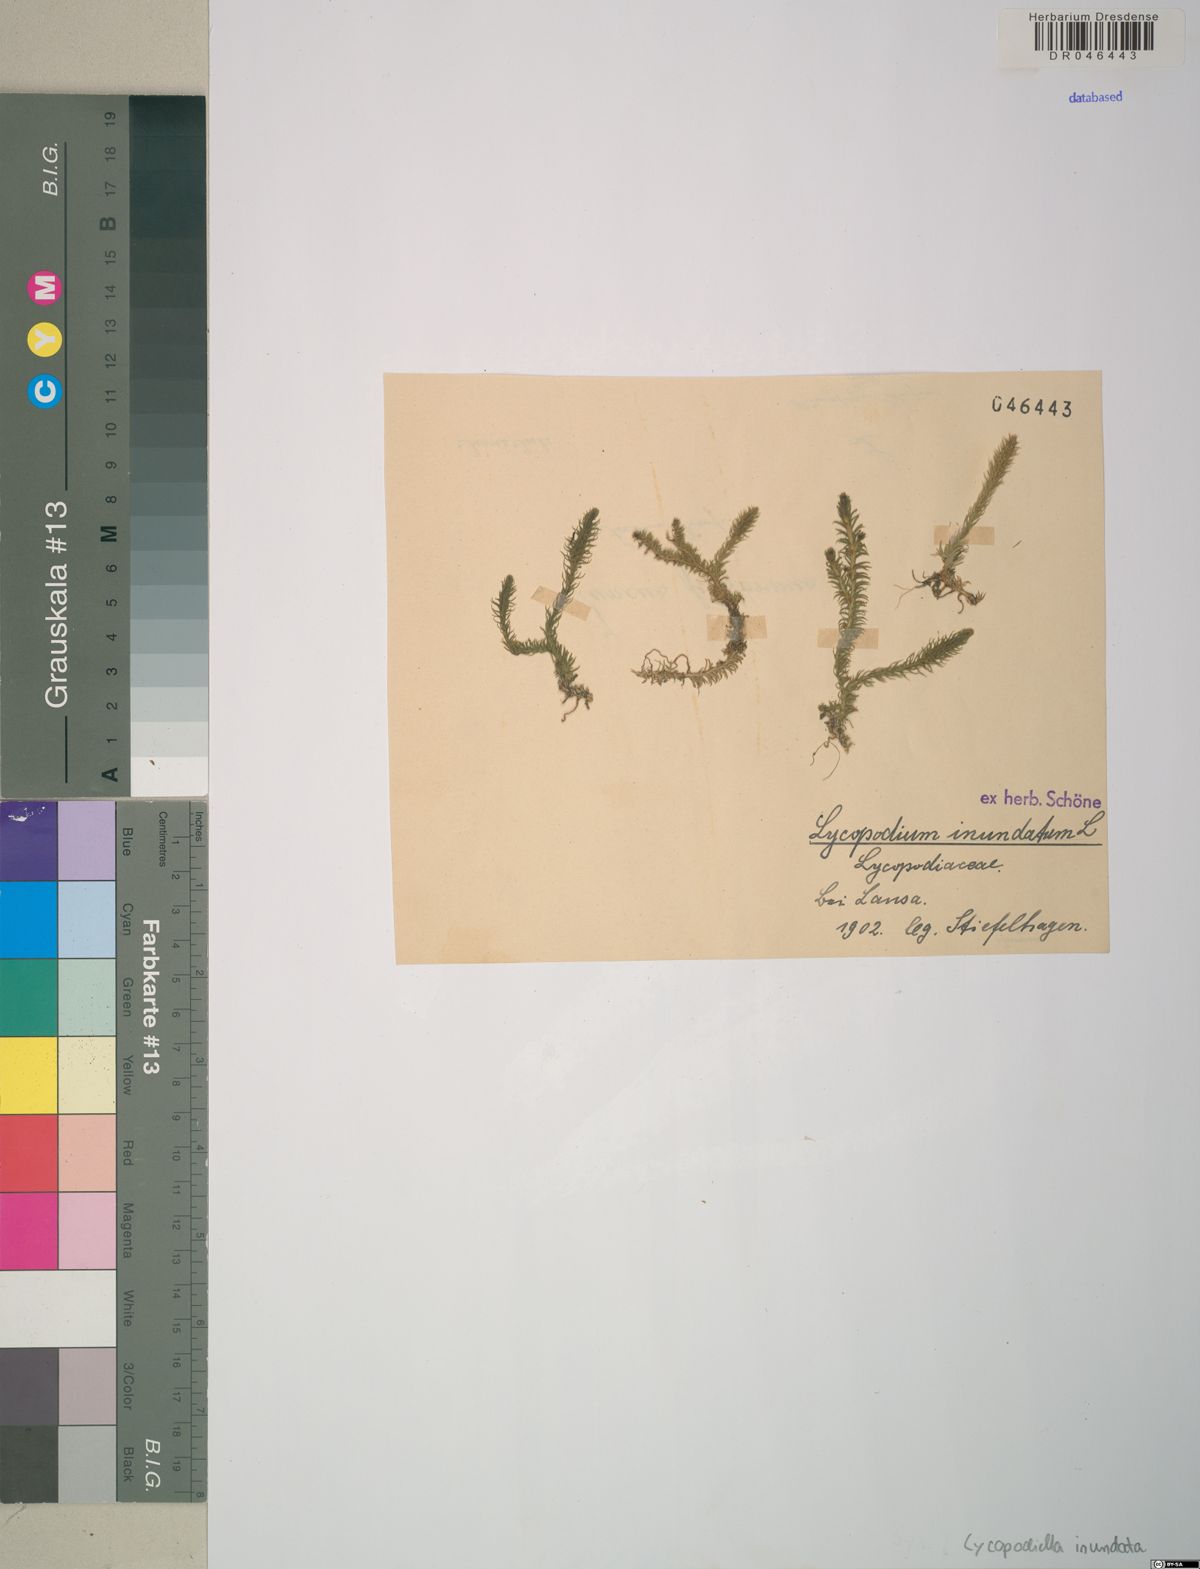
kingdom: Plantae
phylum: Tracheophyta
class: Lycopodiopsida
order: Lycopodiales
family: Lycopodiaceae
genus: Lycopodiella
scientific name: Lycopodiella inundata
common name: Marsh clubmoss
